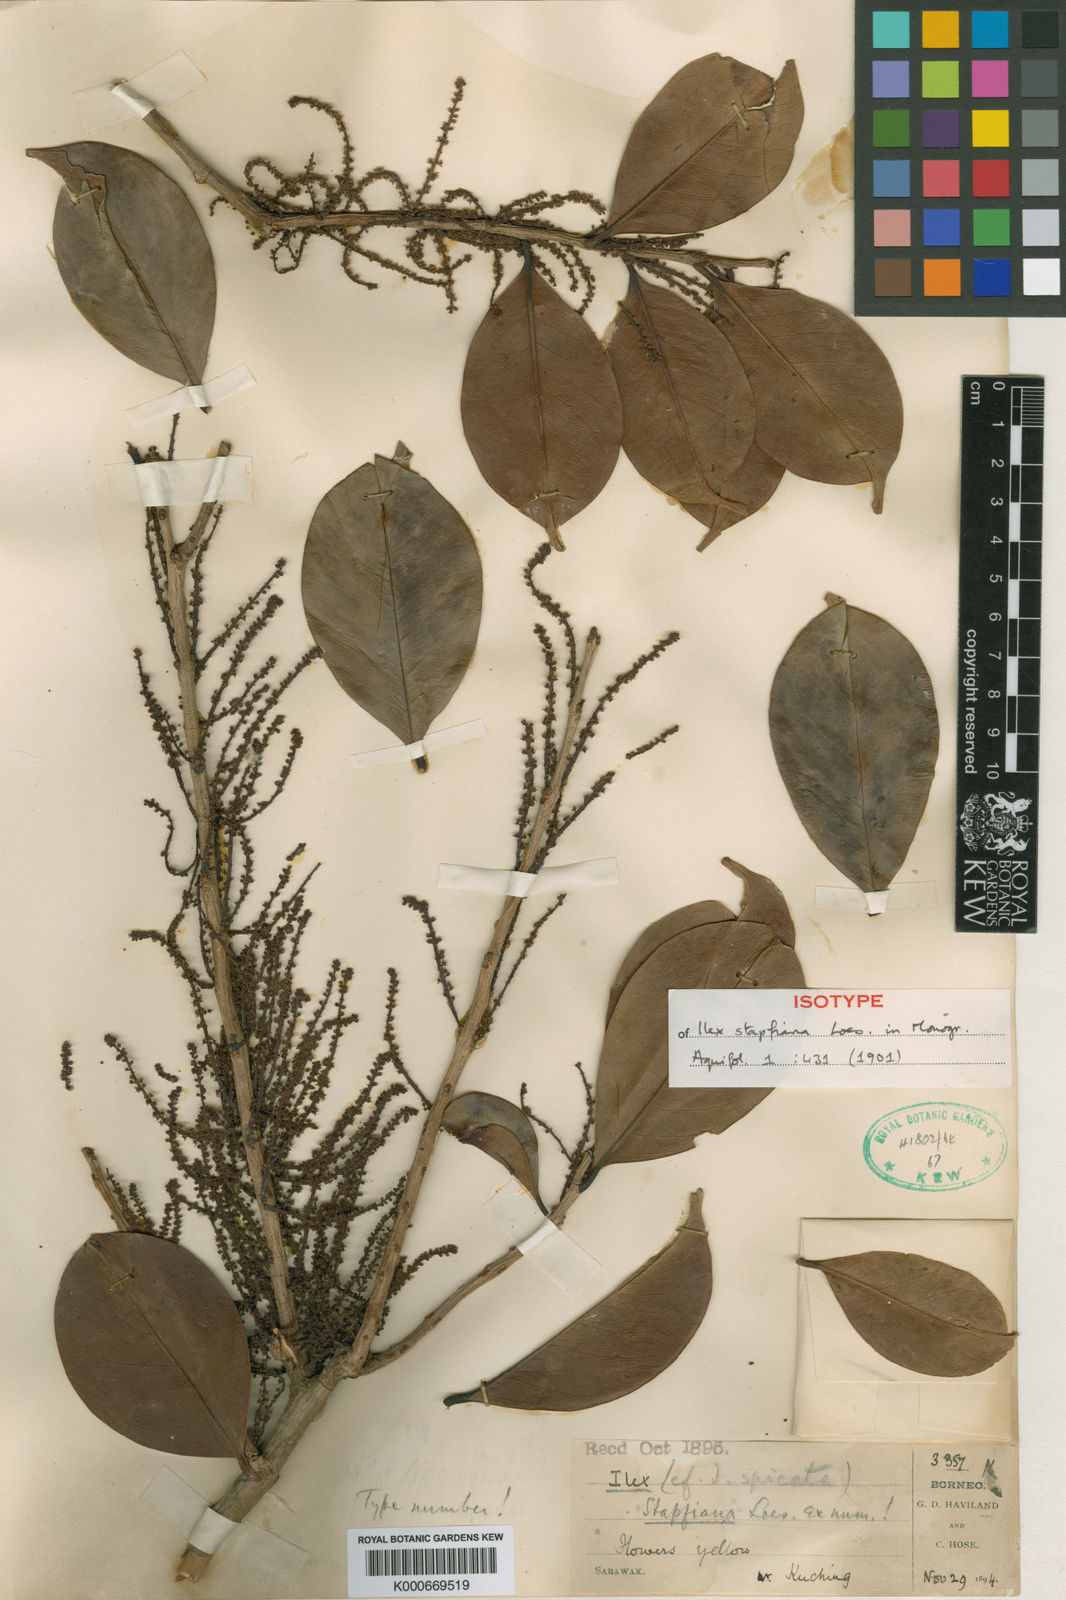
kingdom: Plantae
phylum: Tracheophyta
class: Magnoliopsida
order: Aquifoliales
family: Aquifoliaceae
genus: Ilex
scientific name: Ilex spicata
